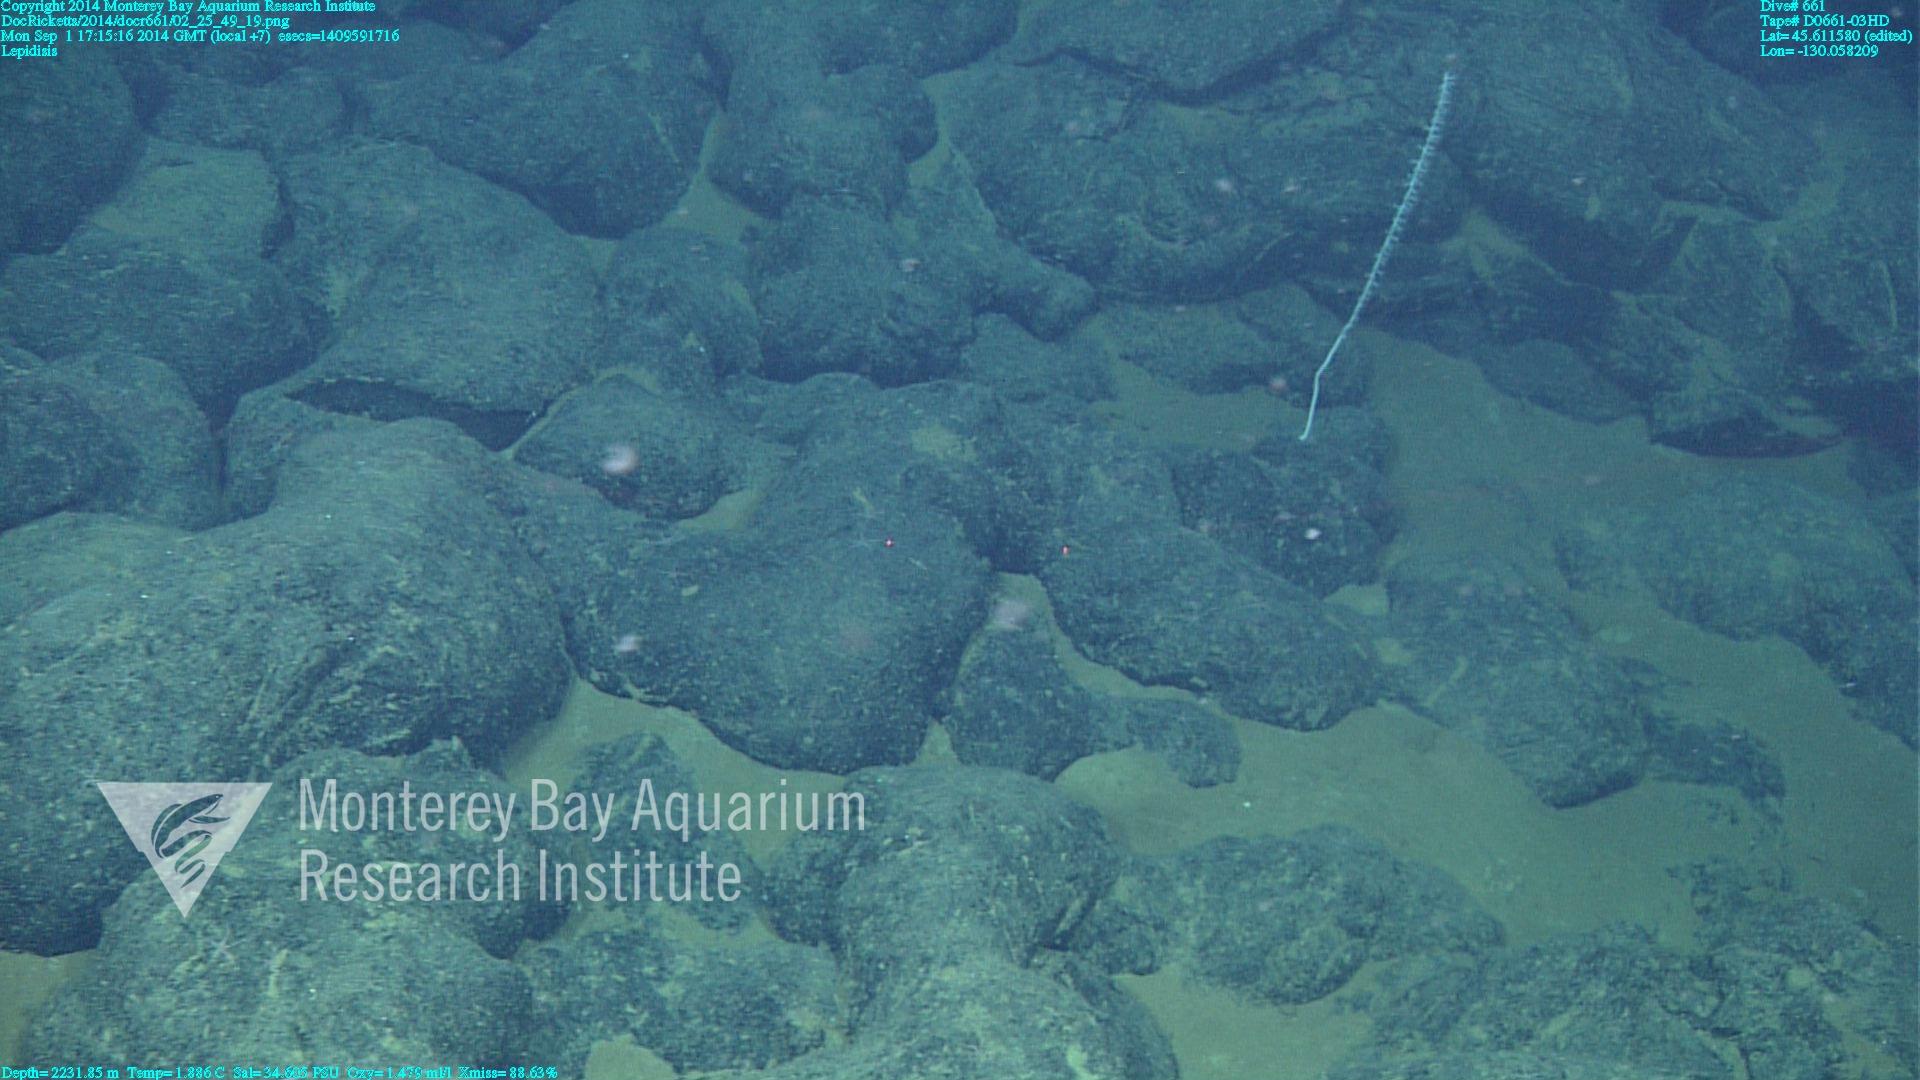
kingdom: Animalia
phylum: Cnidaria
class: Anthozoa
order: Scleralcyonacea
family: Keratoisididae
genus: Lepidisis
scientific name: Lepidisis
